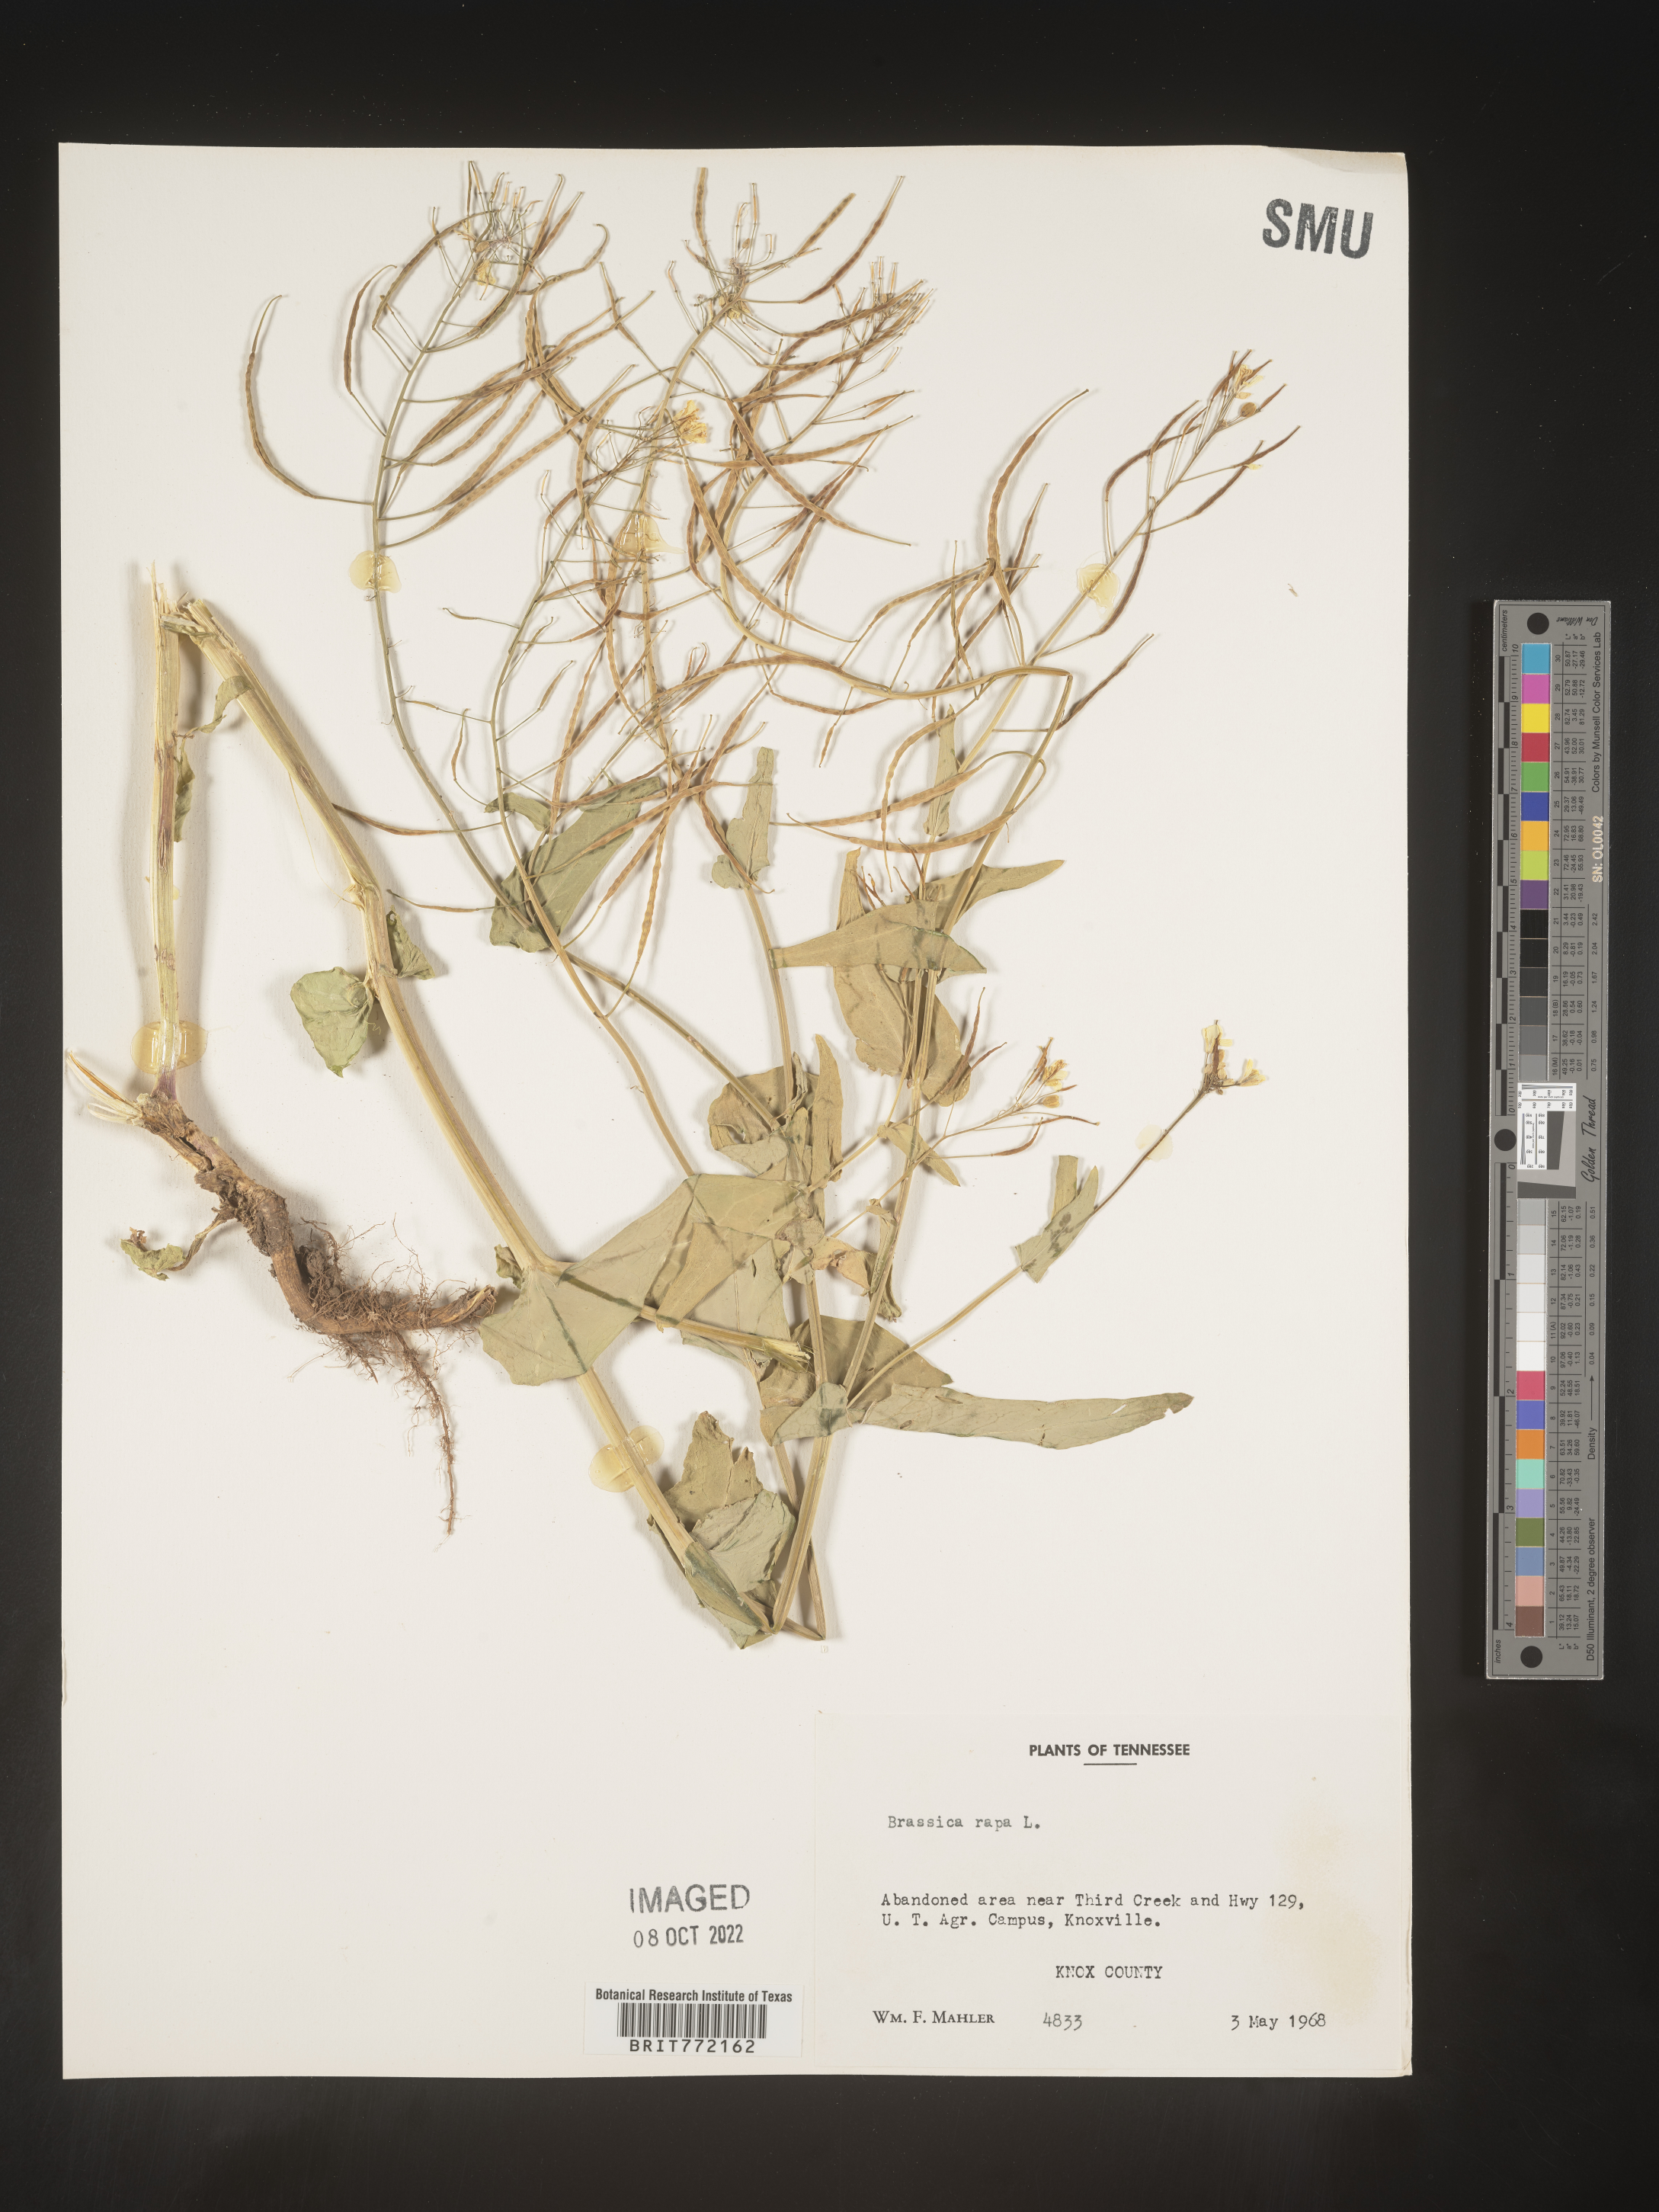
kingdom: Plantae
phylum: Tracheophyta
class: Magnoliopsida
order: Brassicales
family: Brassicaceae
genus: Brassica
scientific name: Brassica rapa
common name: Field mustard
